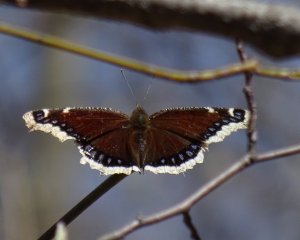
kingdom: Animalia
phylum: Arthropoda
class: Insecta
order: Lepidoptera
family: Nymphalidae
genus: Nymphalis
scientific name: Nymphalis antiopa
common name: Mourning Cloak
